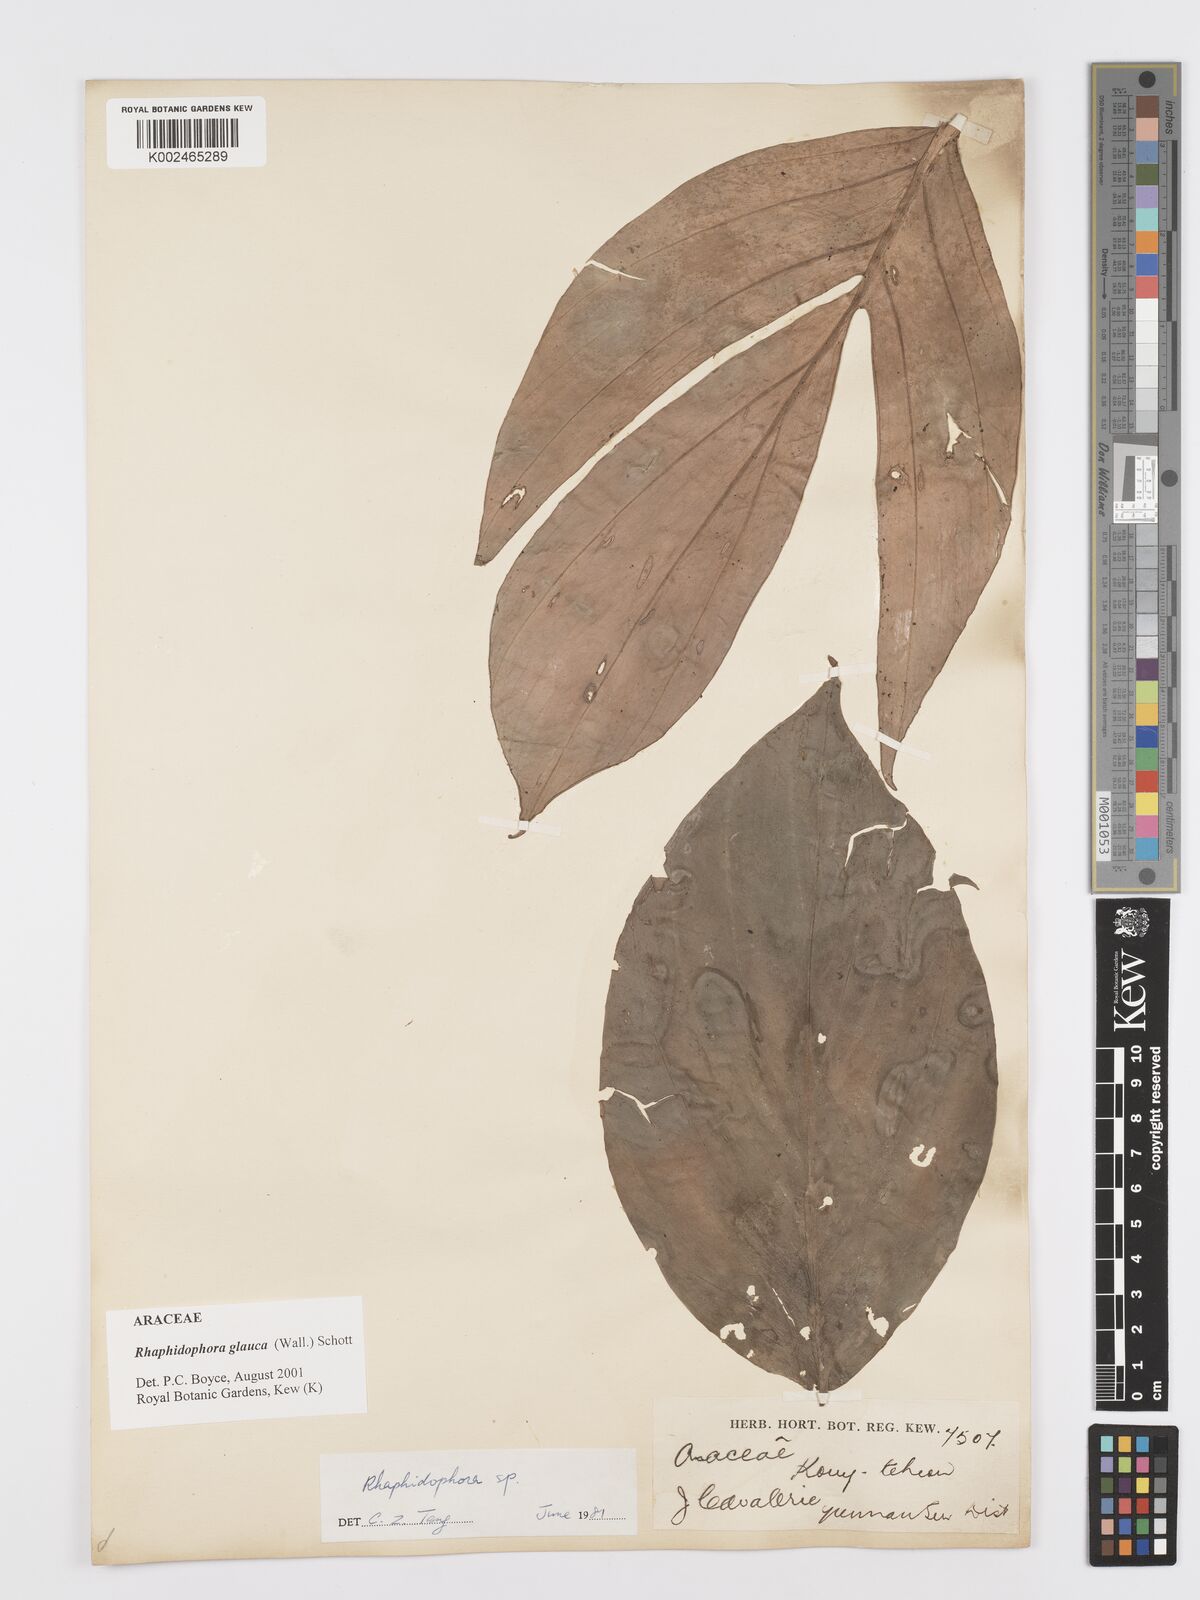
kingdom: Plantae
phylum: Tracheophyta
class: Liliopsida
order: Alismatales
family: Araceae
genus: Rhaphidophora
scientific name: Rhaphidophora glauca
